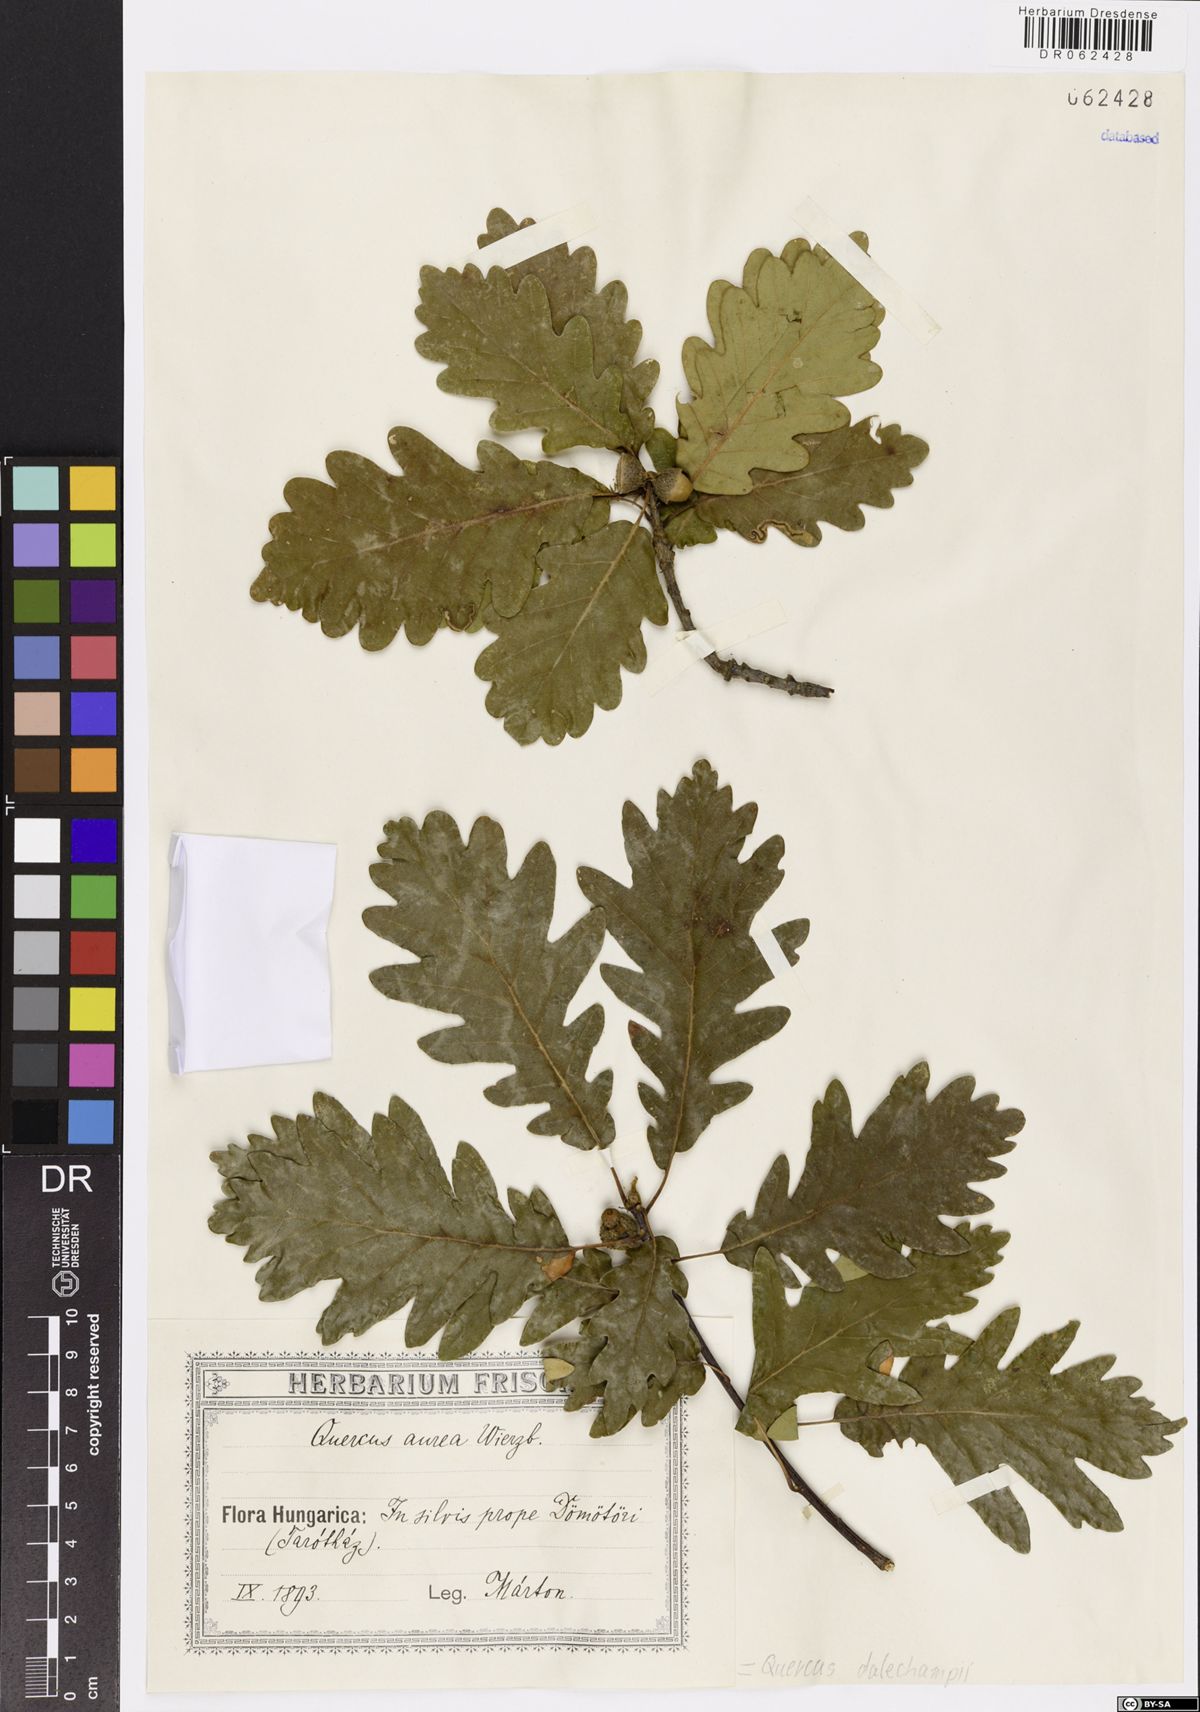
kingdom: Plantae
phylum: Tracheophyta
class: Magnoliopsida
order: Fagales
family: Fagaceae
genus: Quercus
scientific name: Quercus dalechampii
